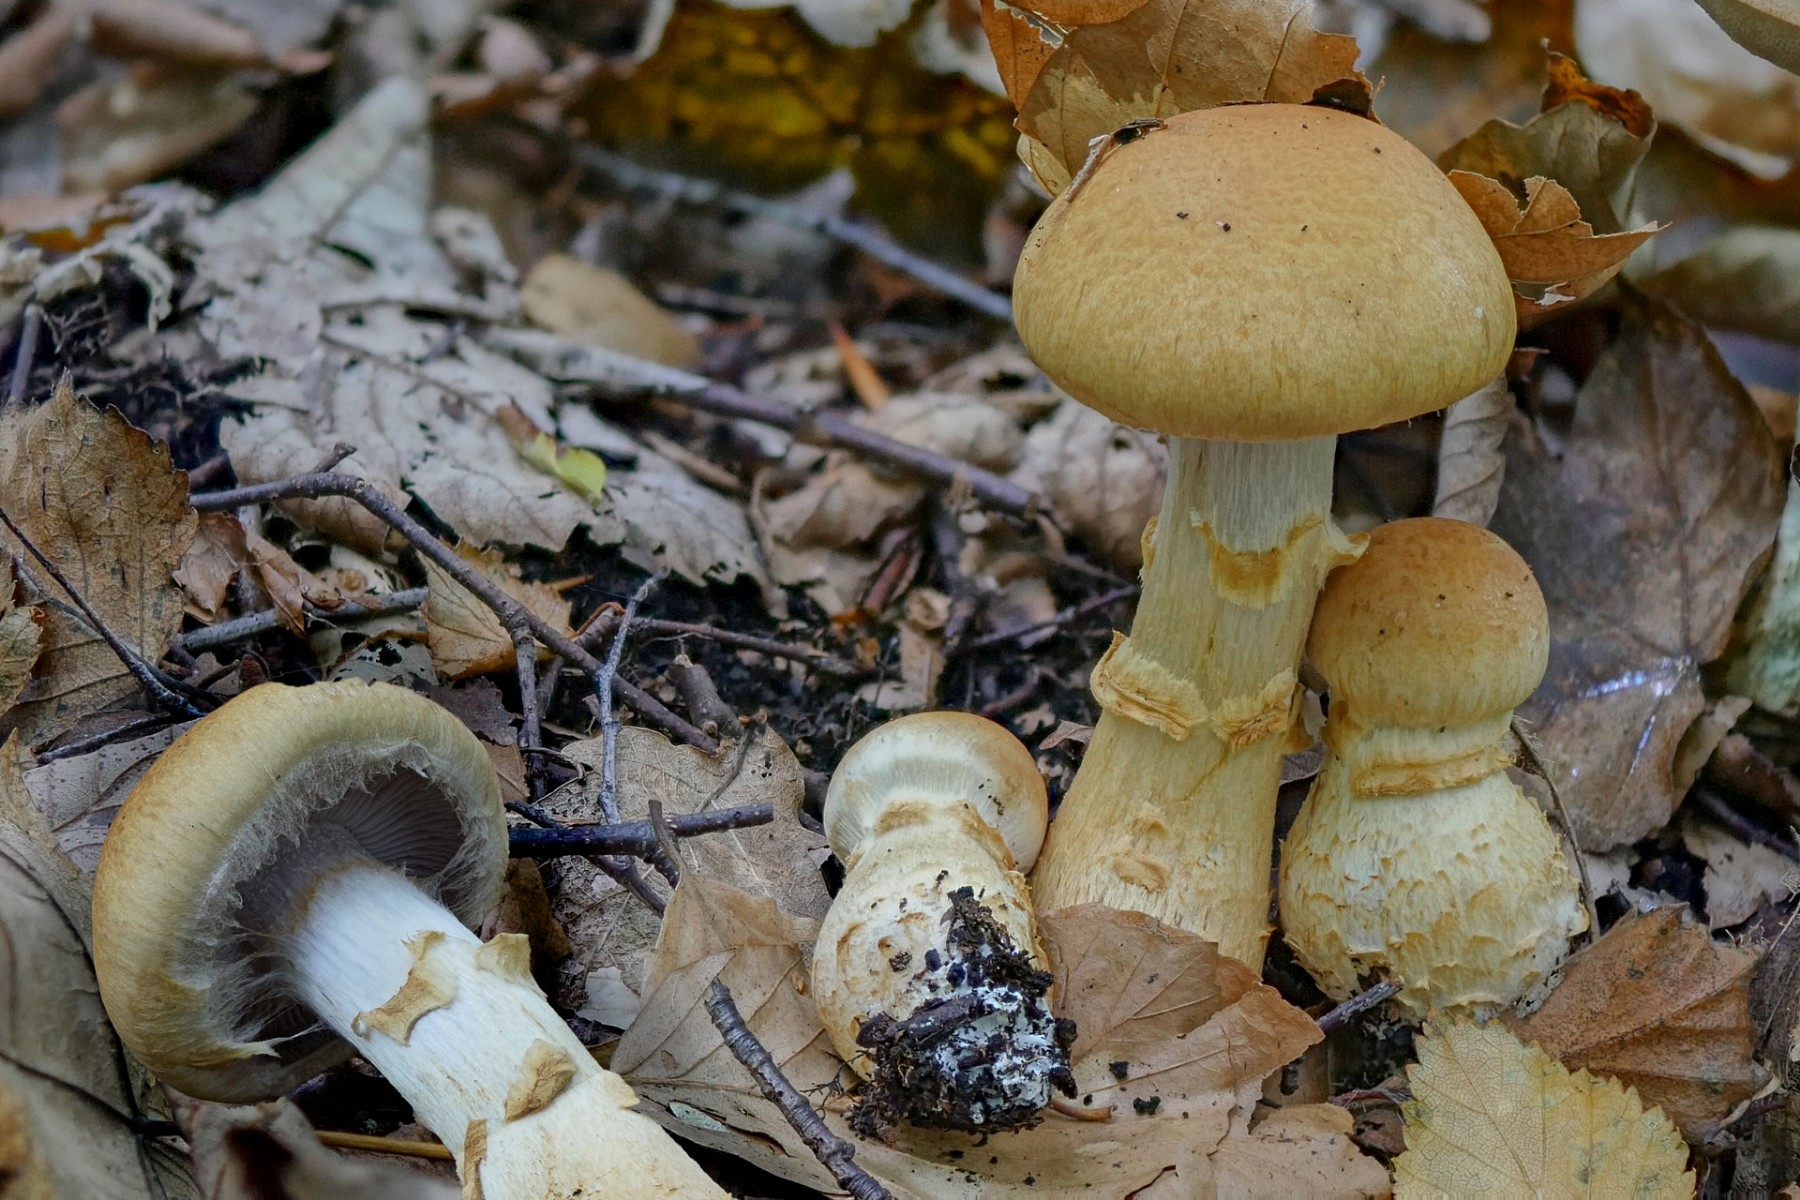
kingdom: Fungi
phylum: Basidiomycota
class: Agaricomycetes
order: Agaricales
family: Cortinariaceae
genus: Phlegmacium
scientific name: Phlegmacium triumphans
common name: gulbæltet slørhat
